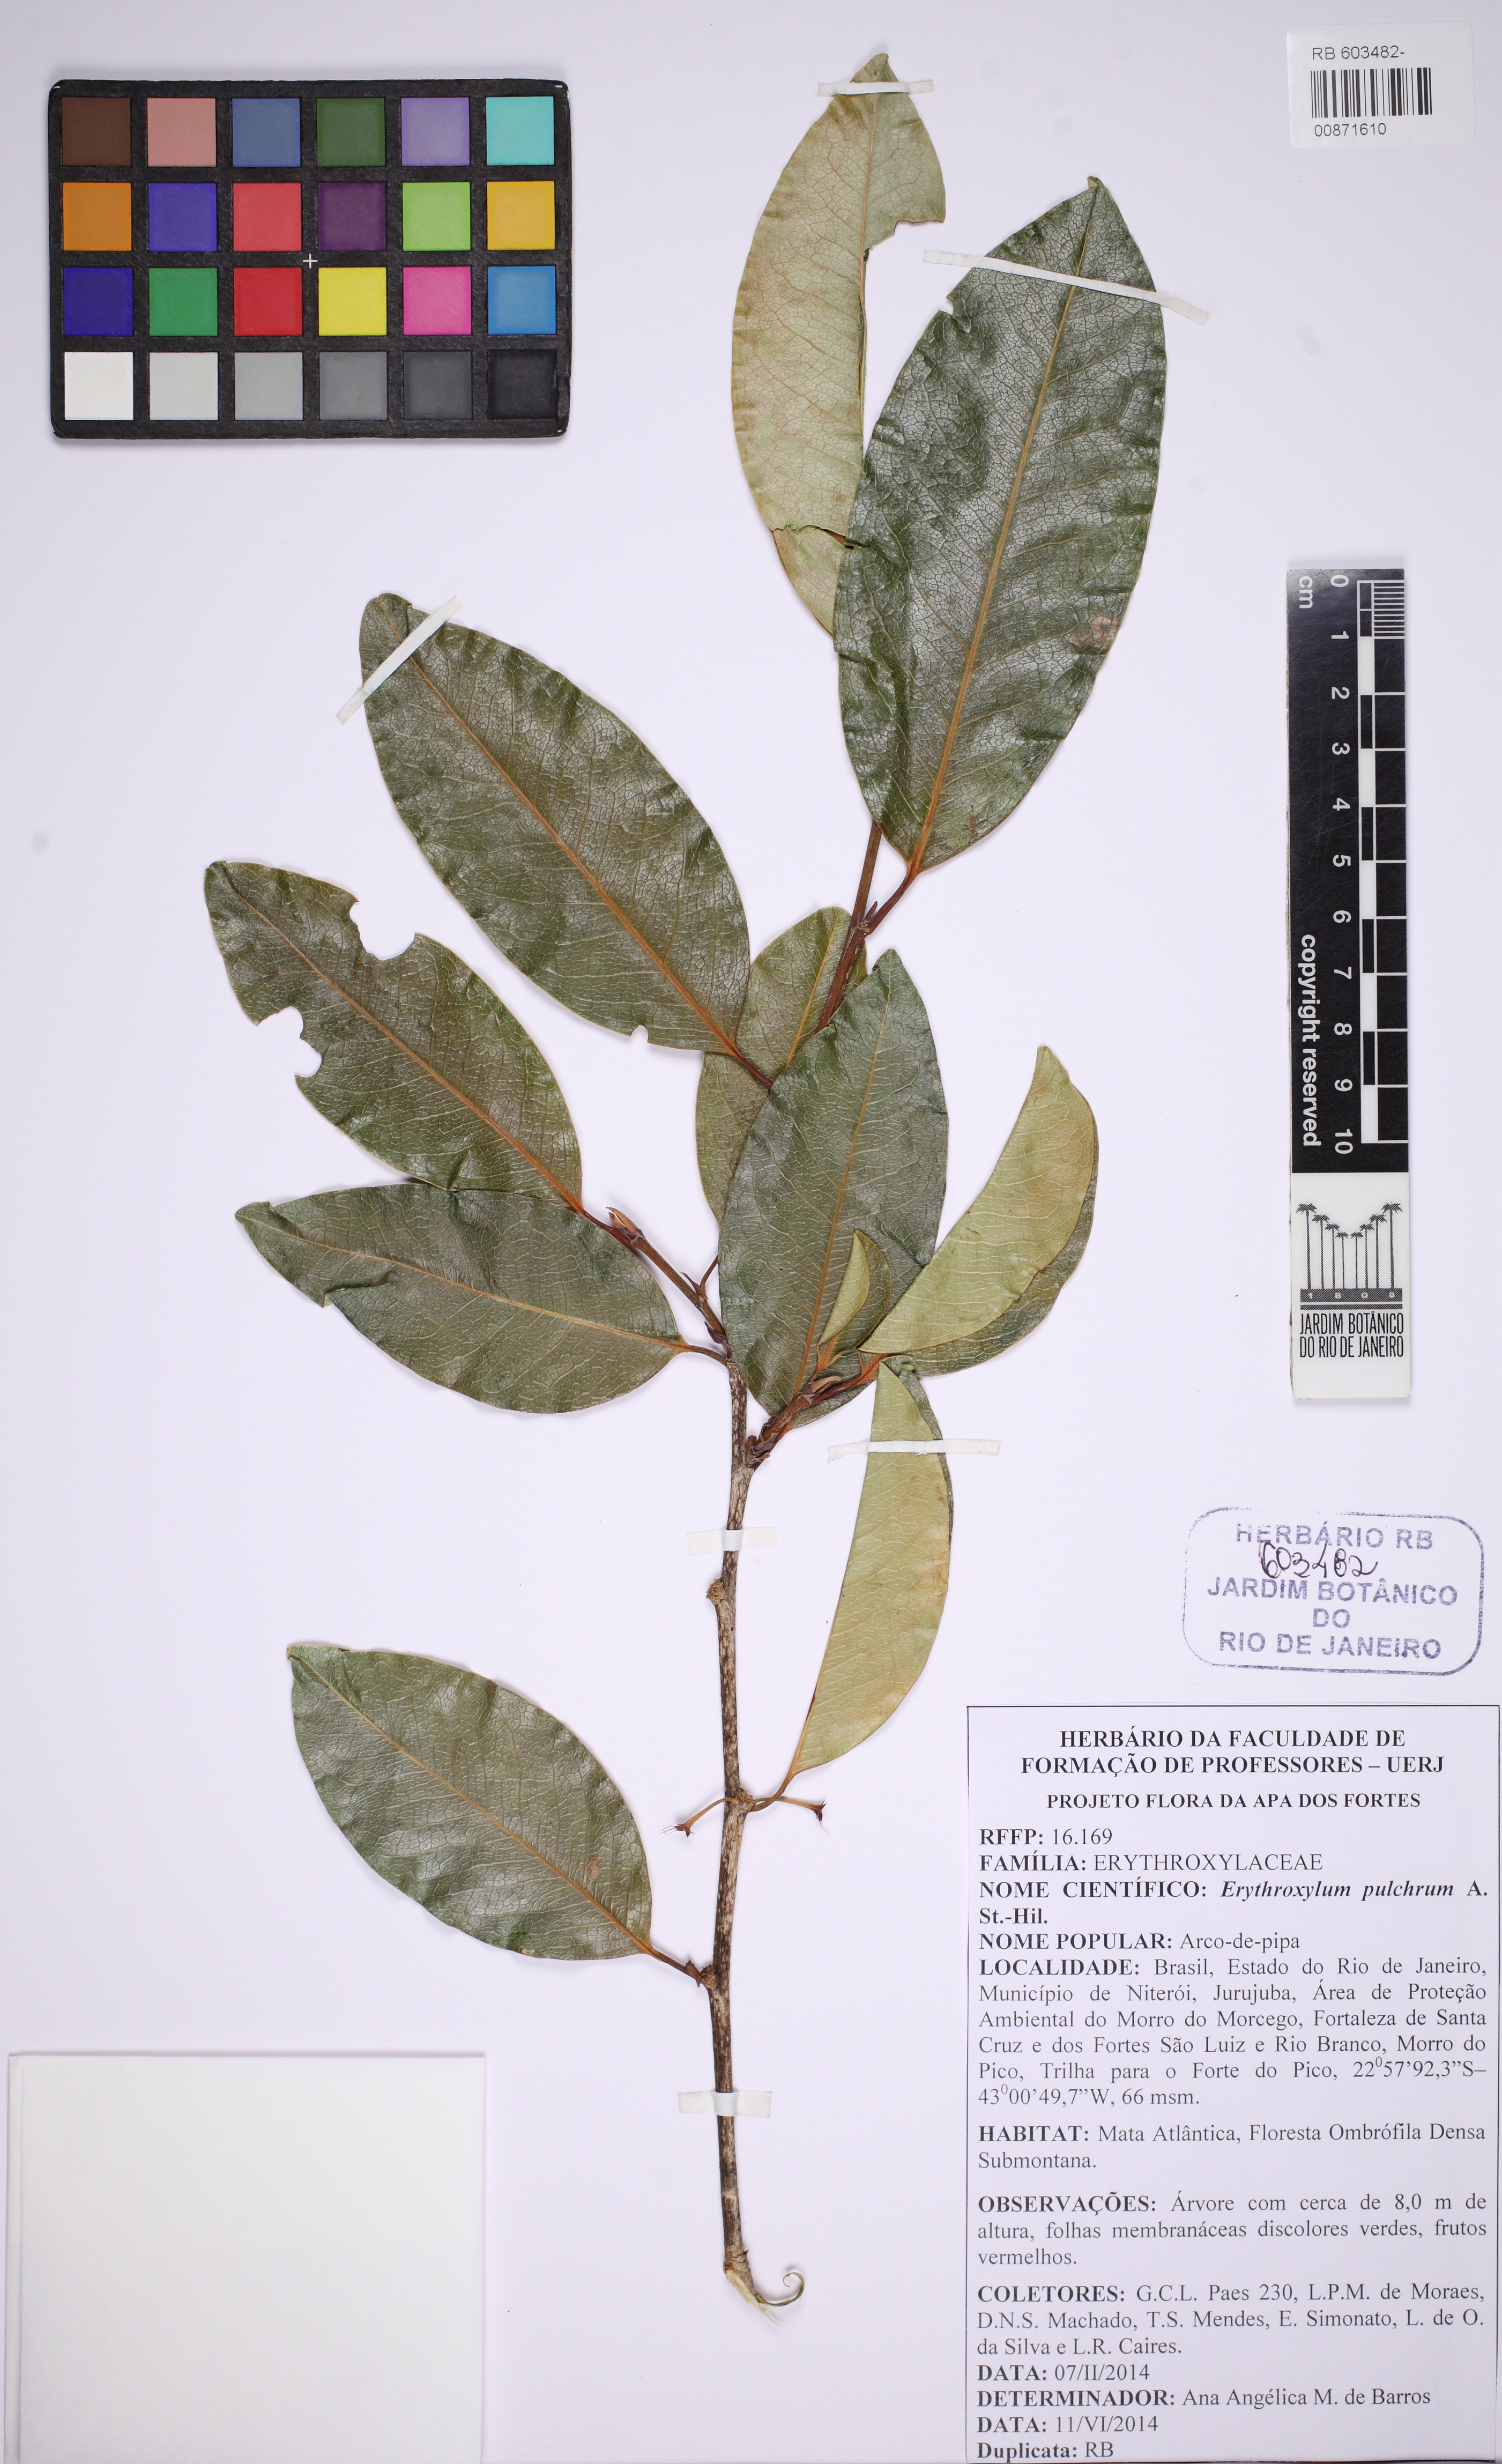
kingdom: Plantae
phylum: Tracheophyta
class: Magnoliopsida
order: Malpighiales
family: Erythroxylaceae
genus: Erythroxylum
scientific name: Erythroxylum pulchrum
